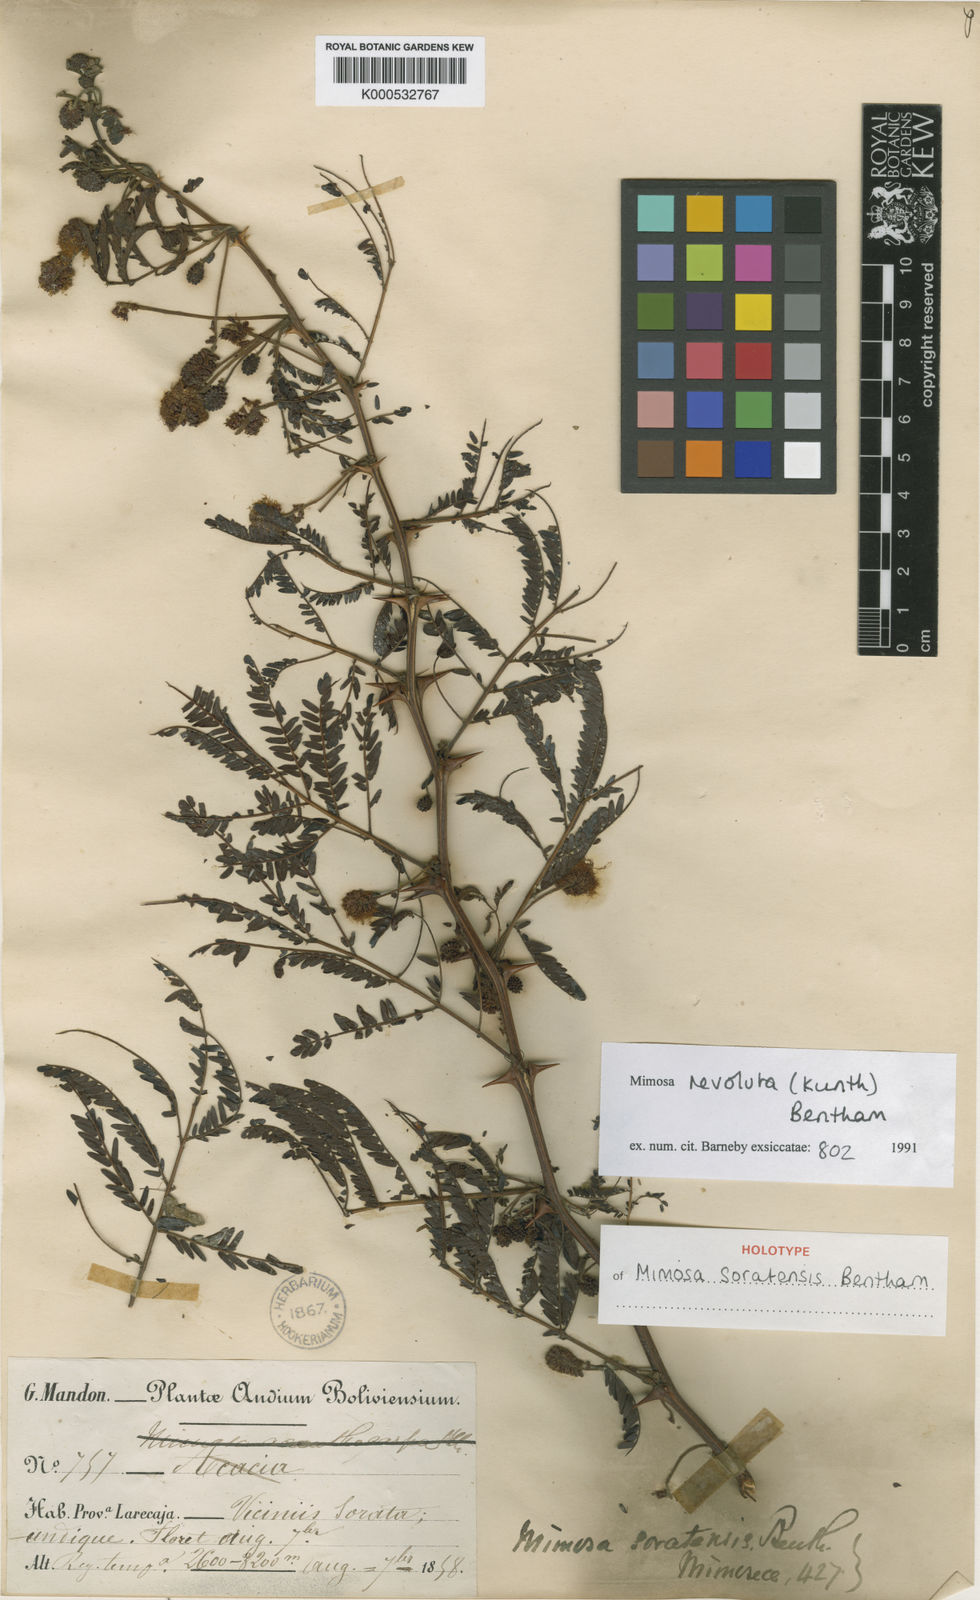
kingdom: Plantae
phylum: Tracheophyta
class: Magnoliopsida
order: Fabales
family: Fabaceae
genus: Mimosa
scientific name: Mimosa revoluta
